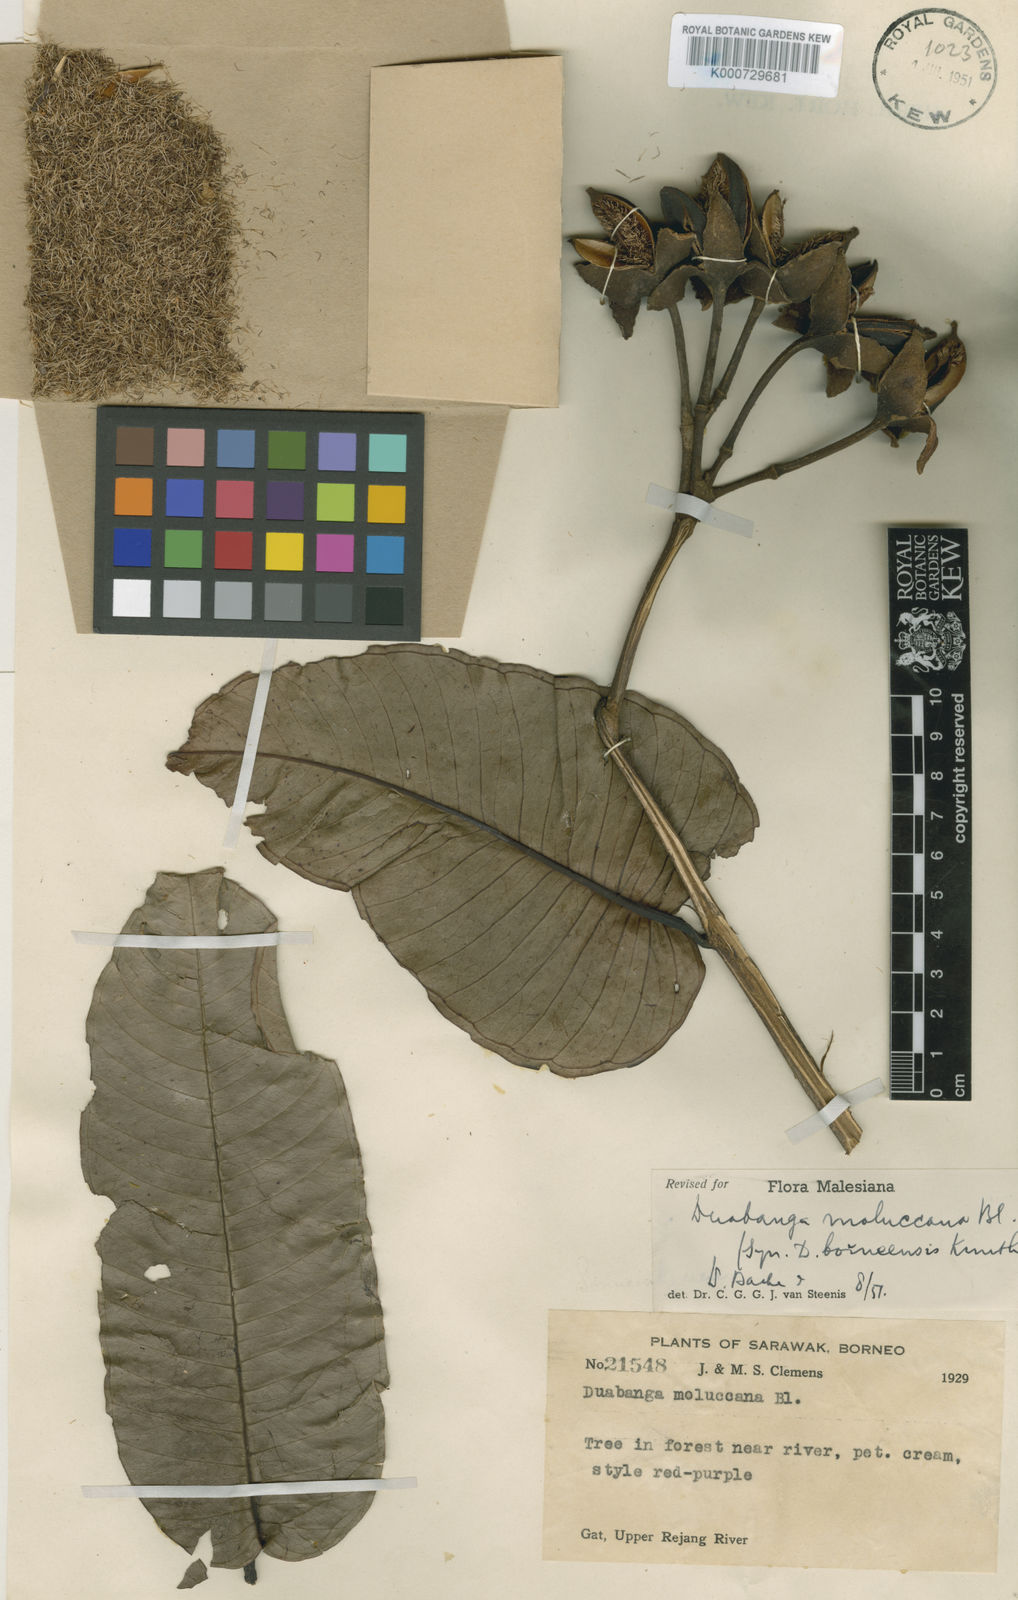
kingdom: Plantae
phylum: Tracheophyta
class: Magnoliopsida
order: Myrtales
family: Lythraceae
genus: Duabanga
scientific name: Duabanga moluccana
